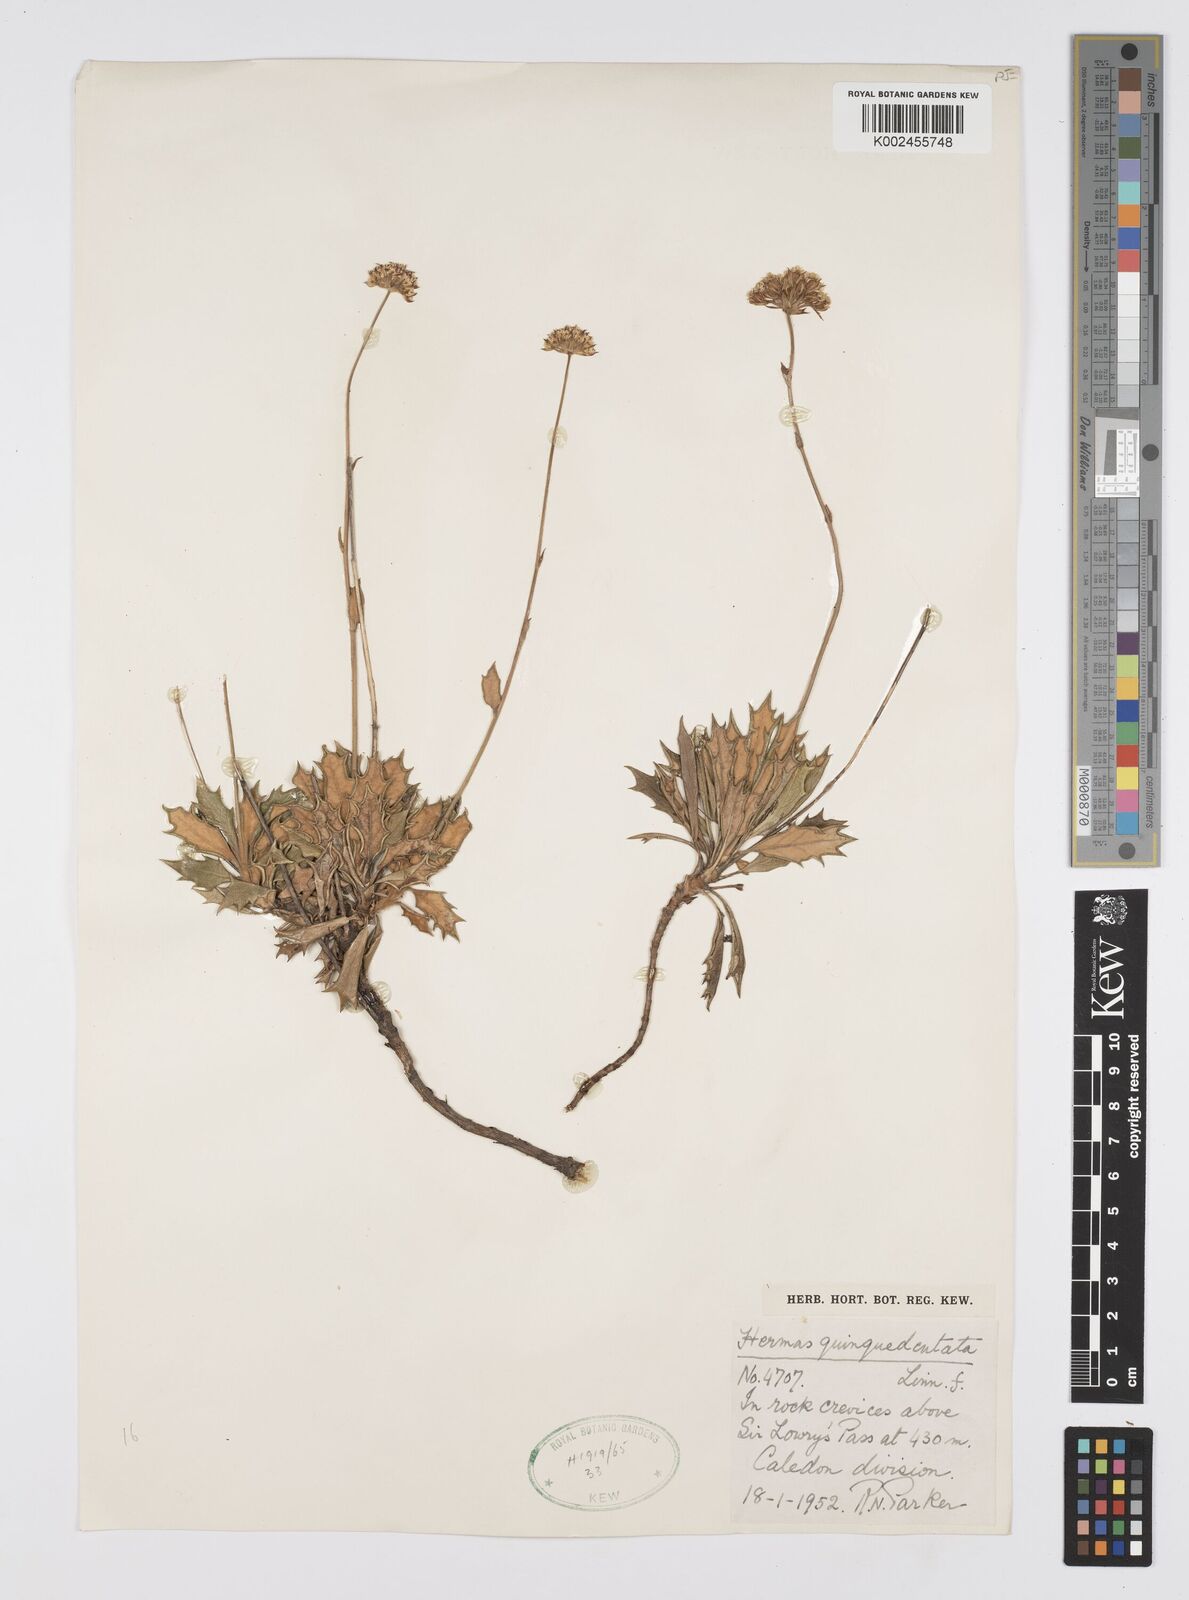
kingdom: Plantae
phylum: Tracheophyta
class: Magnoliopsida
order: Apiales
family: Apiaceae
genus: Hermas
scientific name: Hermas quinquedentata
